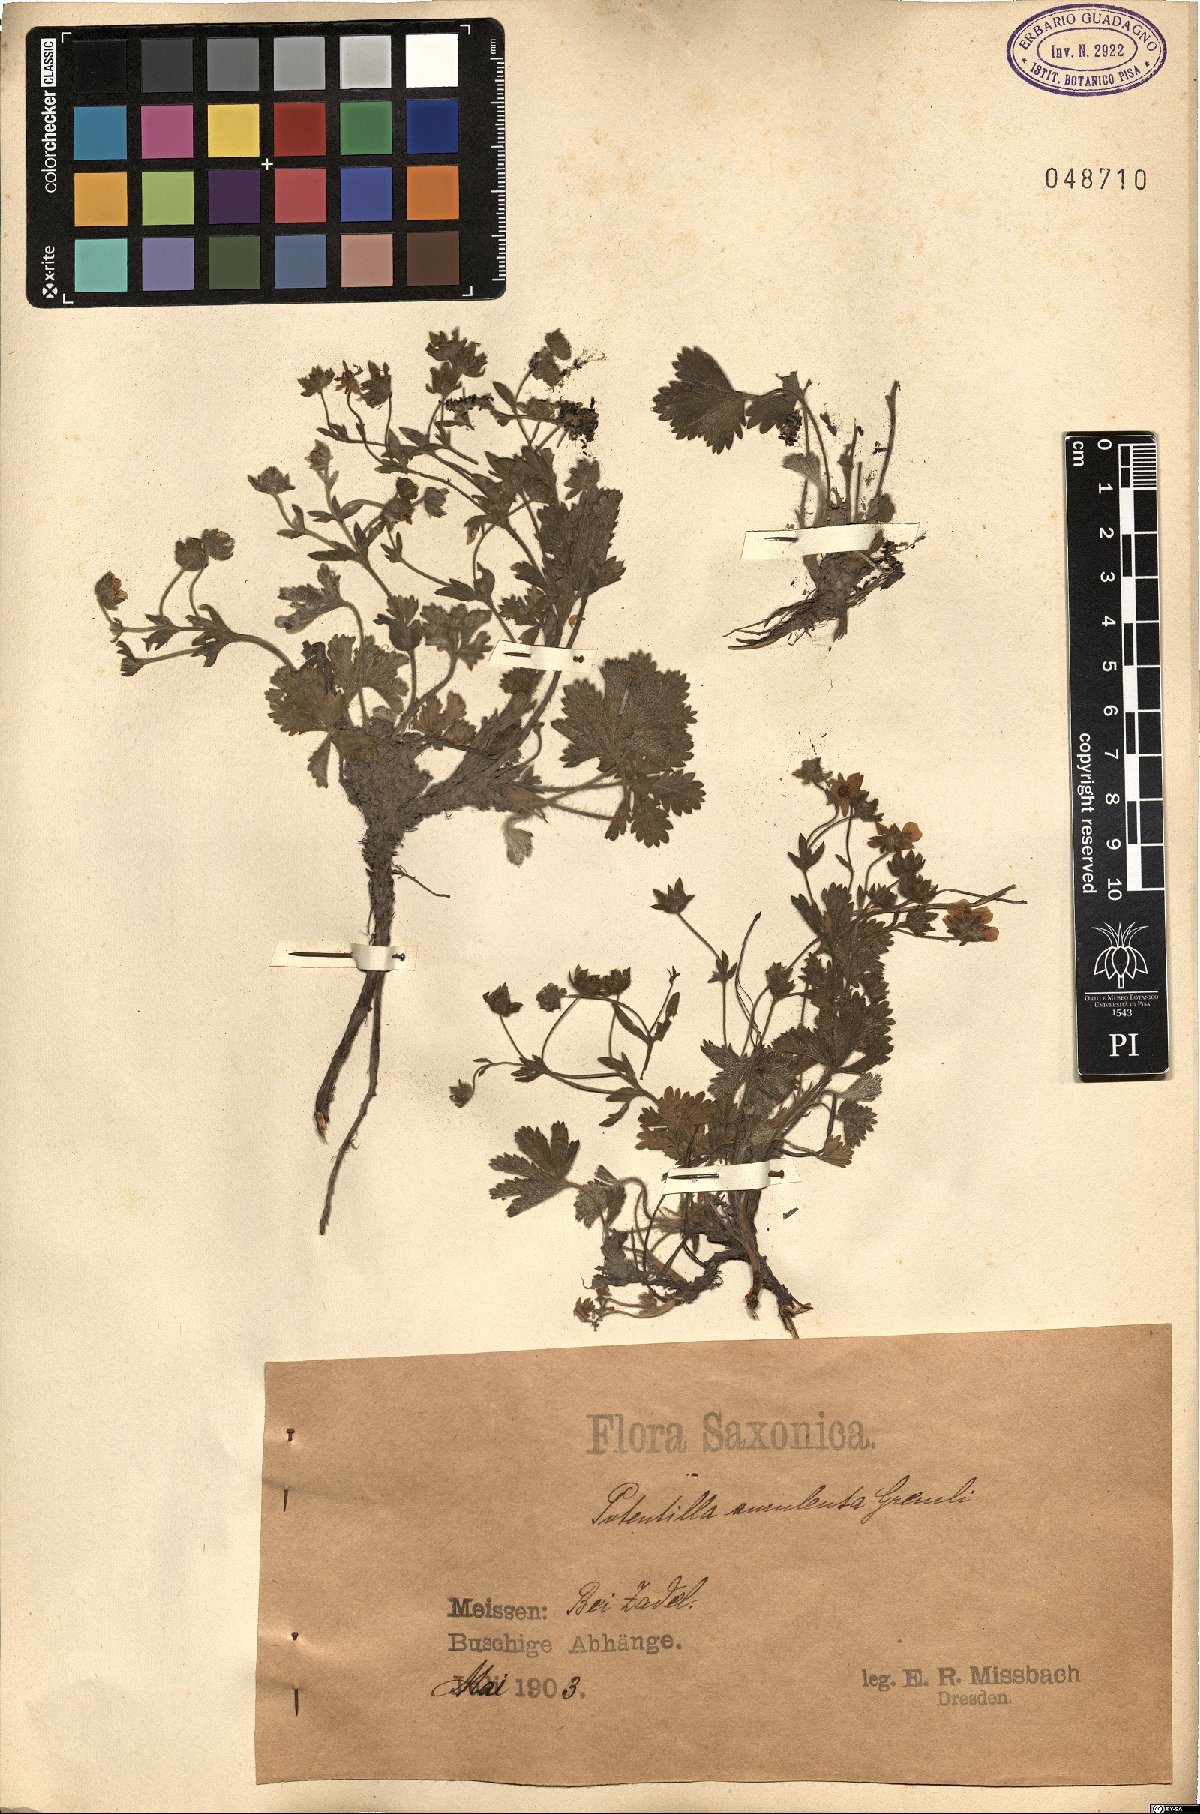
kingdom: Plantae
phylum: Tracheophyta
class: Magnoliopsida
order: Rosales
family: Rosaceae
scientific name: Rosaceae
